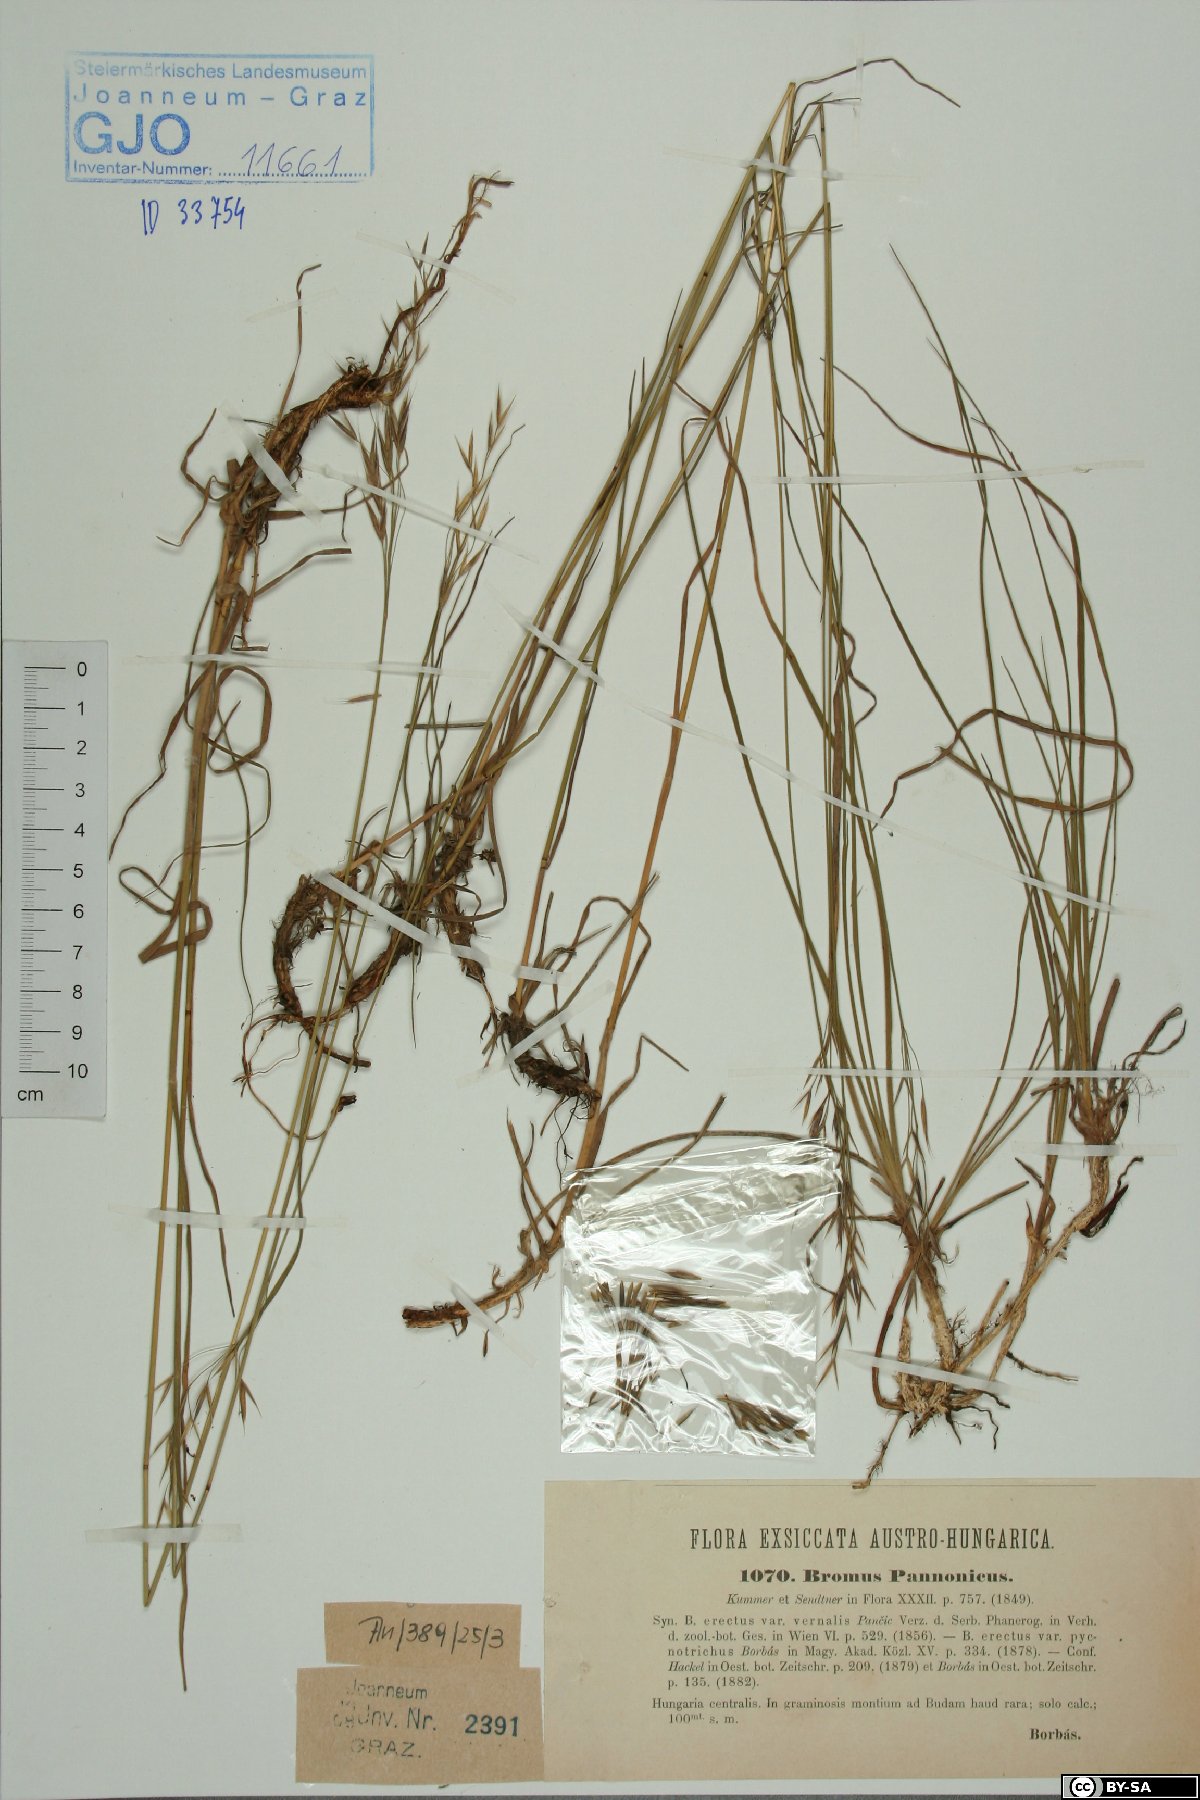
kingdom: Plantae
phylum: Tracheophyta
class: Liliopsida
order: Poales
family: Poaceae
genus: Bromus
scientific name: Bromus pannonicus
